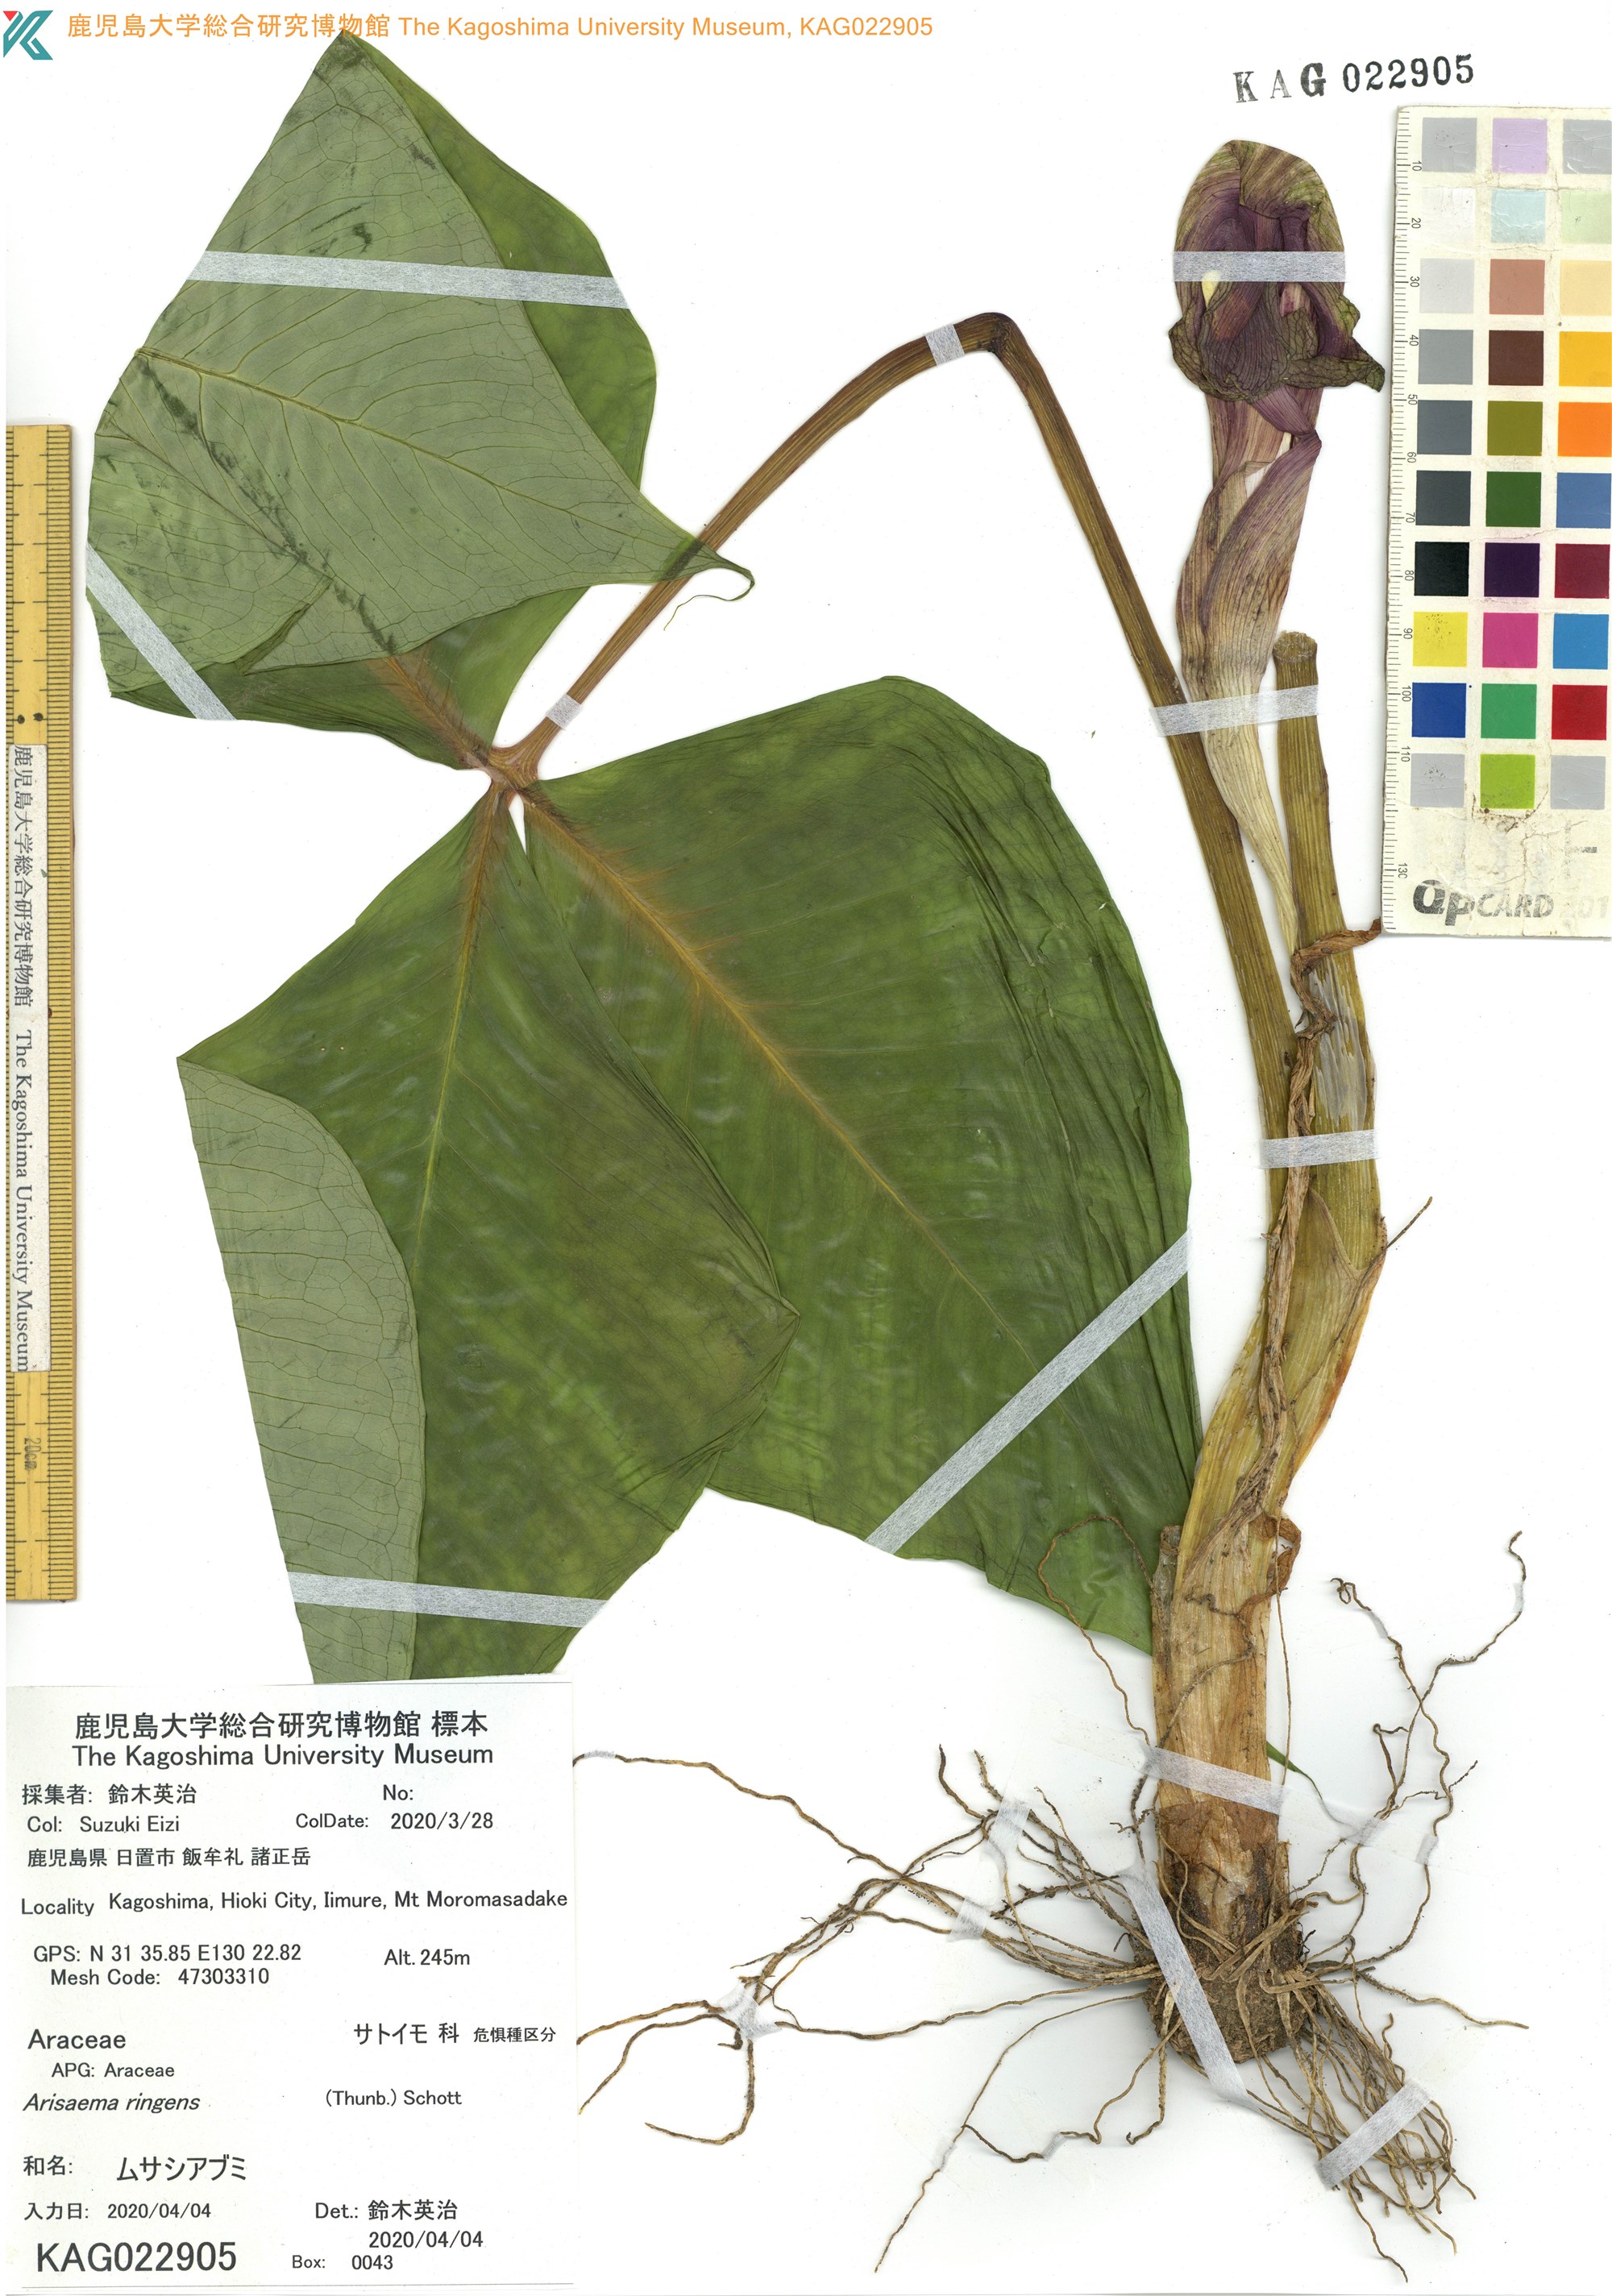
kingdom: Plantae
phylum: Tracheophyta
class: Liliopsida
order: Alismatales
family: Araceae
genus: Arisaema
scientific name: Arisaema ringens
